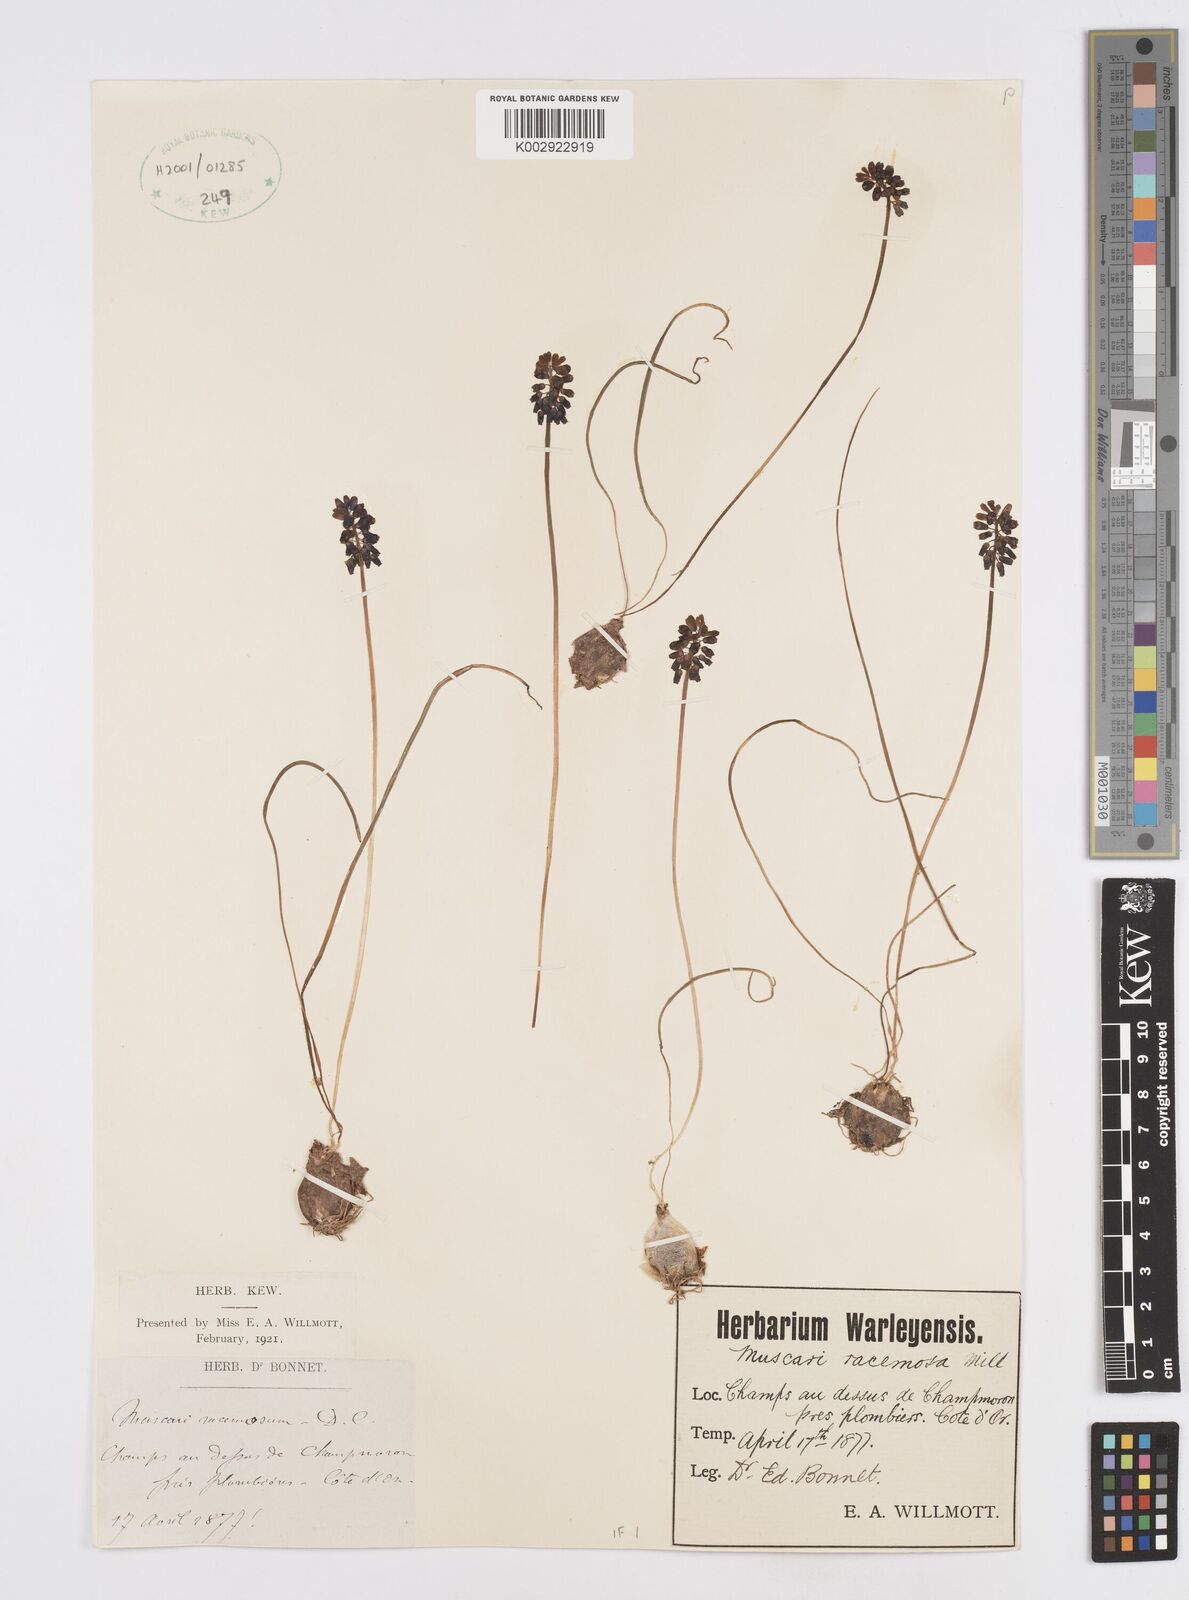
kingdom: Plantae
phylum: Tracheophyta
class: Liliopsida
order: Asparagales
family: Asparagaceae
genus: Muscarimia
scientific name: Muscarimia muscari
